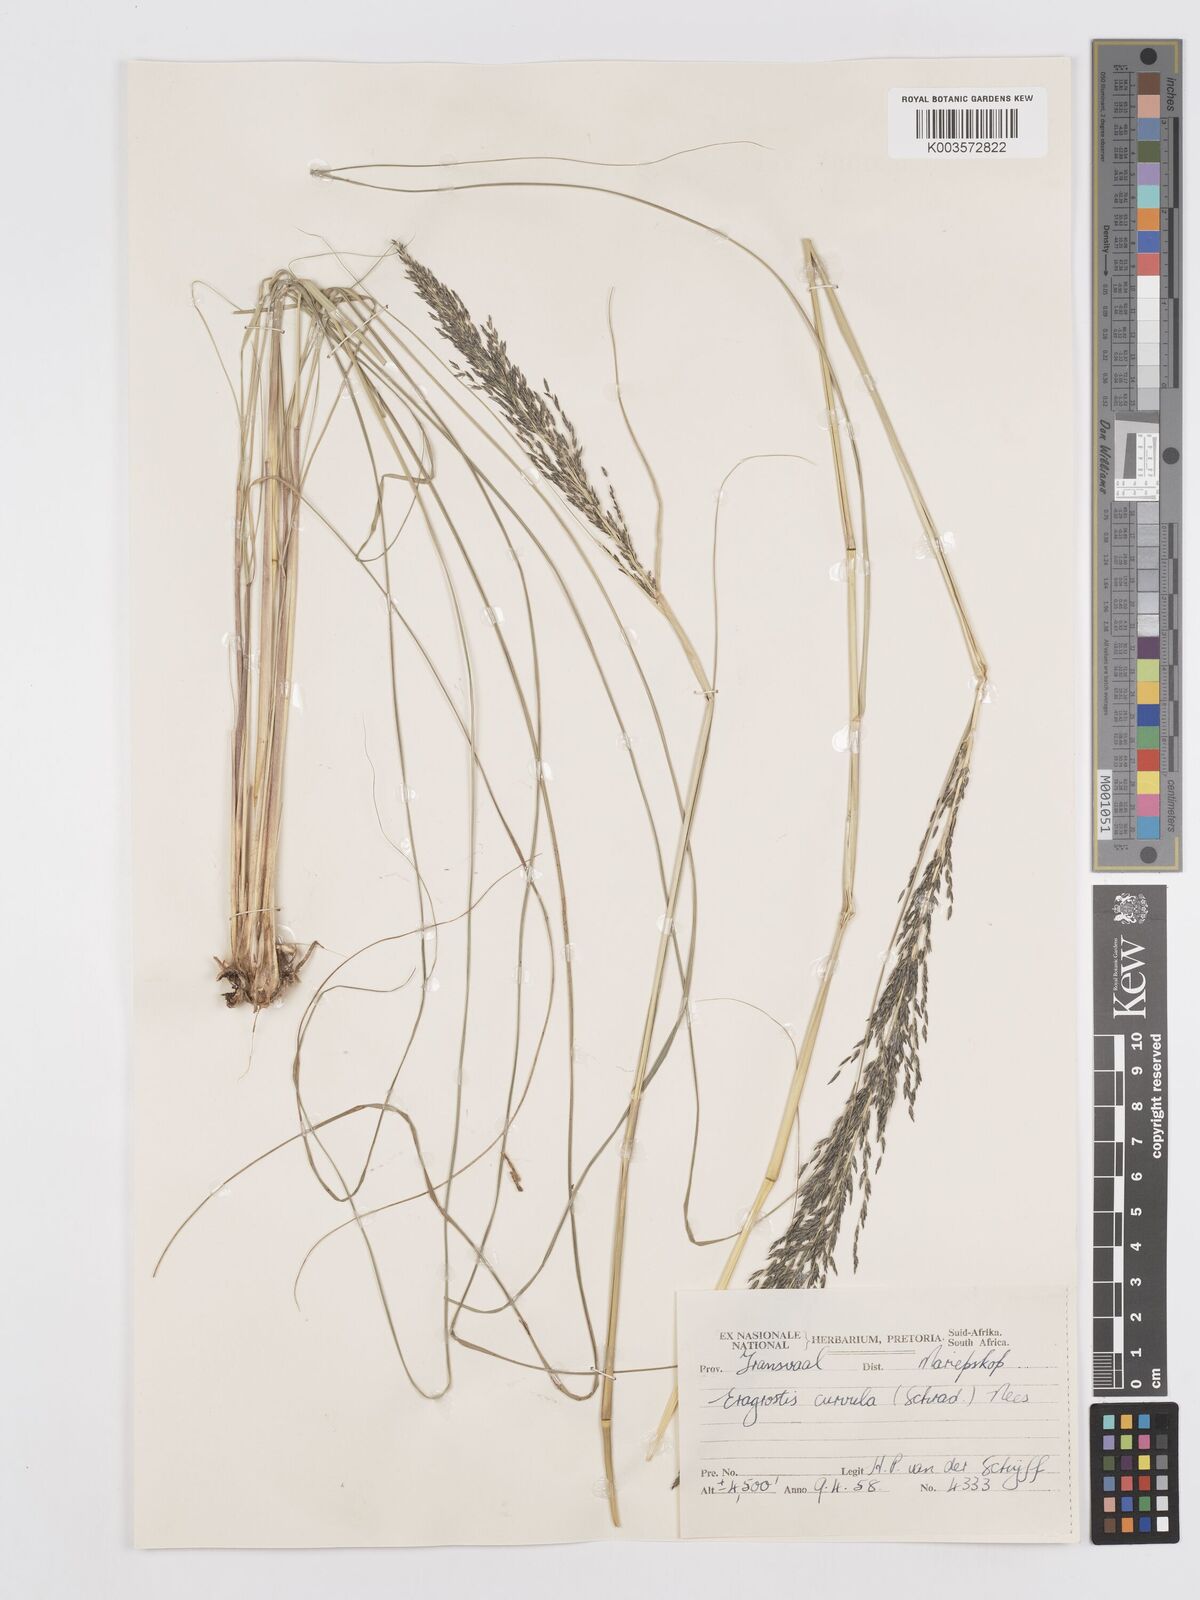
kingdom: Plantae
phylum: Tracheophyta
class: Liliopsida
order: Poales
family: Poaceae
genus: Eragrostis
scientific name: Eragrostis curvula
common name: African love-grass
